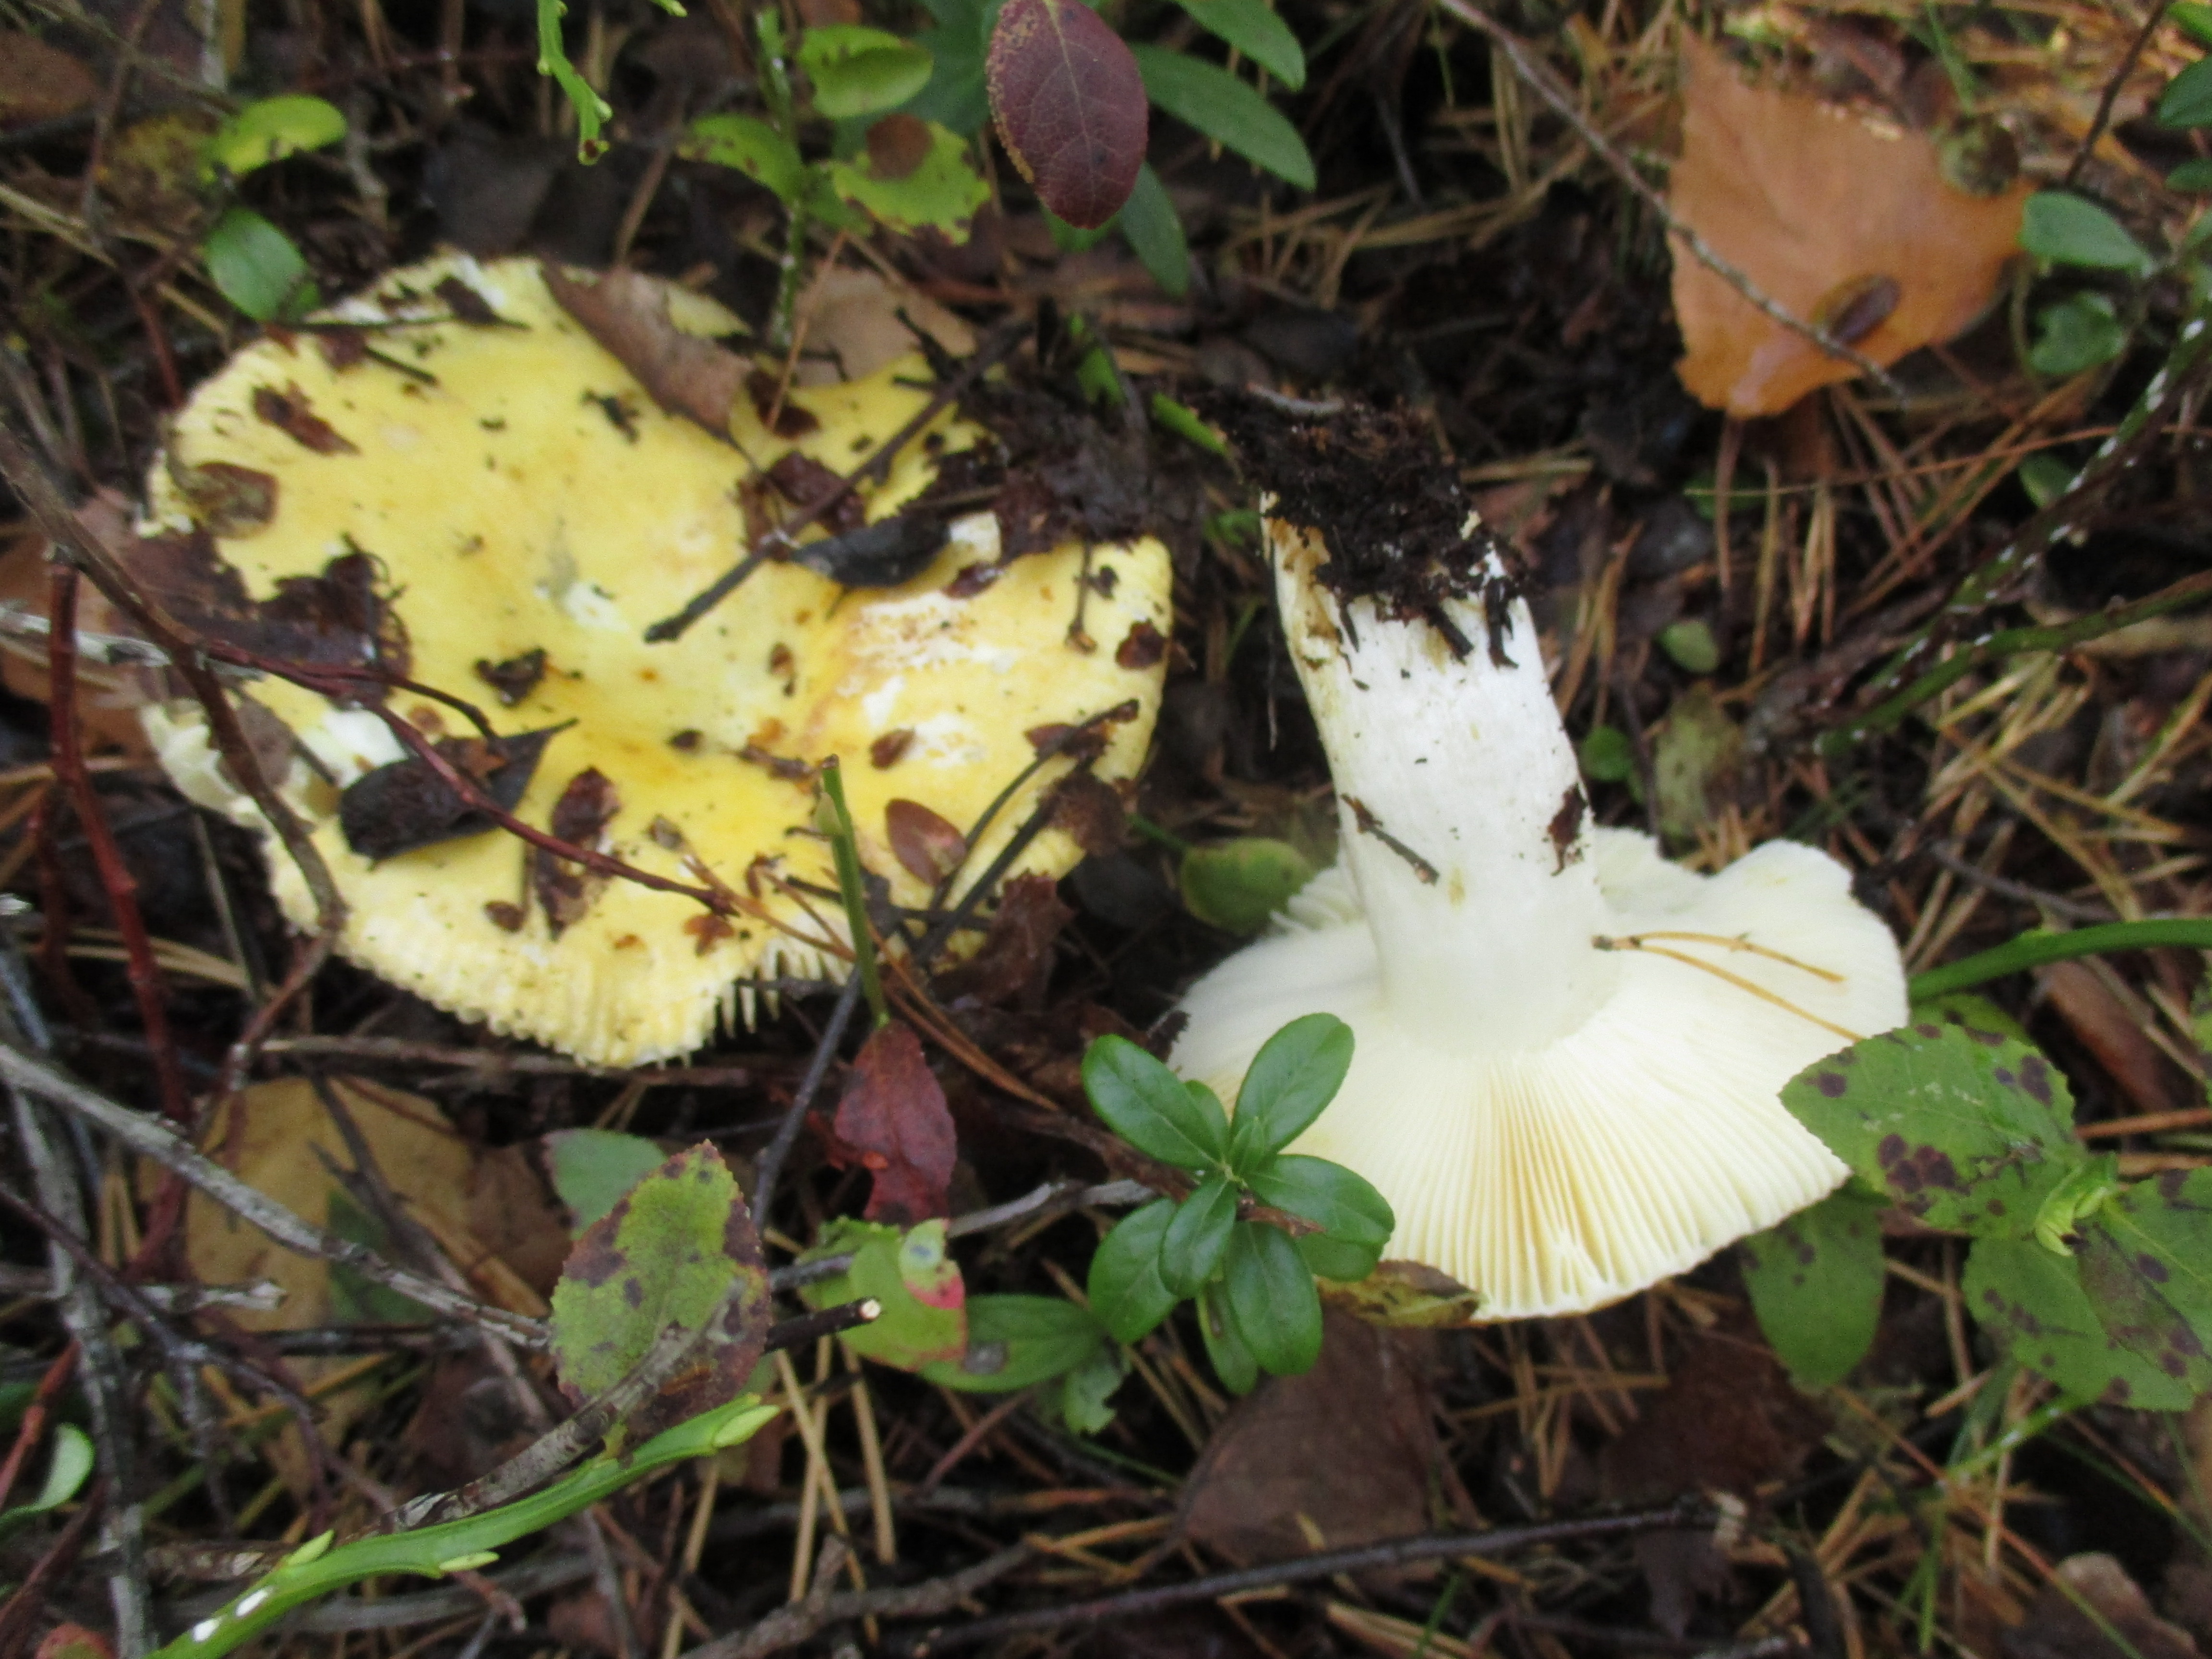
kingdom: Fungi
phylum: Basidiomycota
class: Agaricomycetes
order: Russulales
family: Russulaceae
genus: Russula
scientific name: Russula claroflava
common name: The yellow swamp brittlegill
